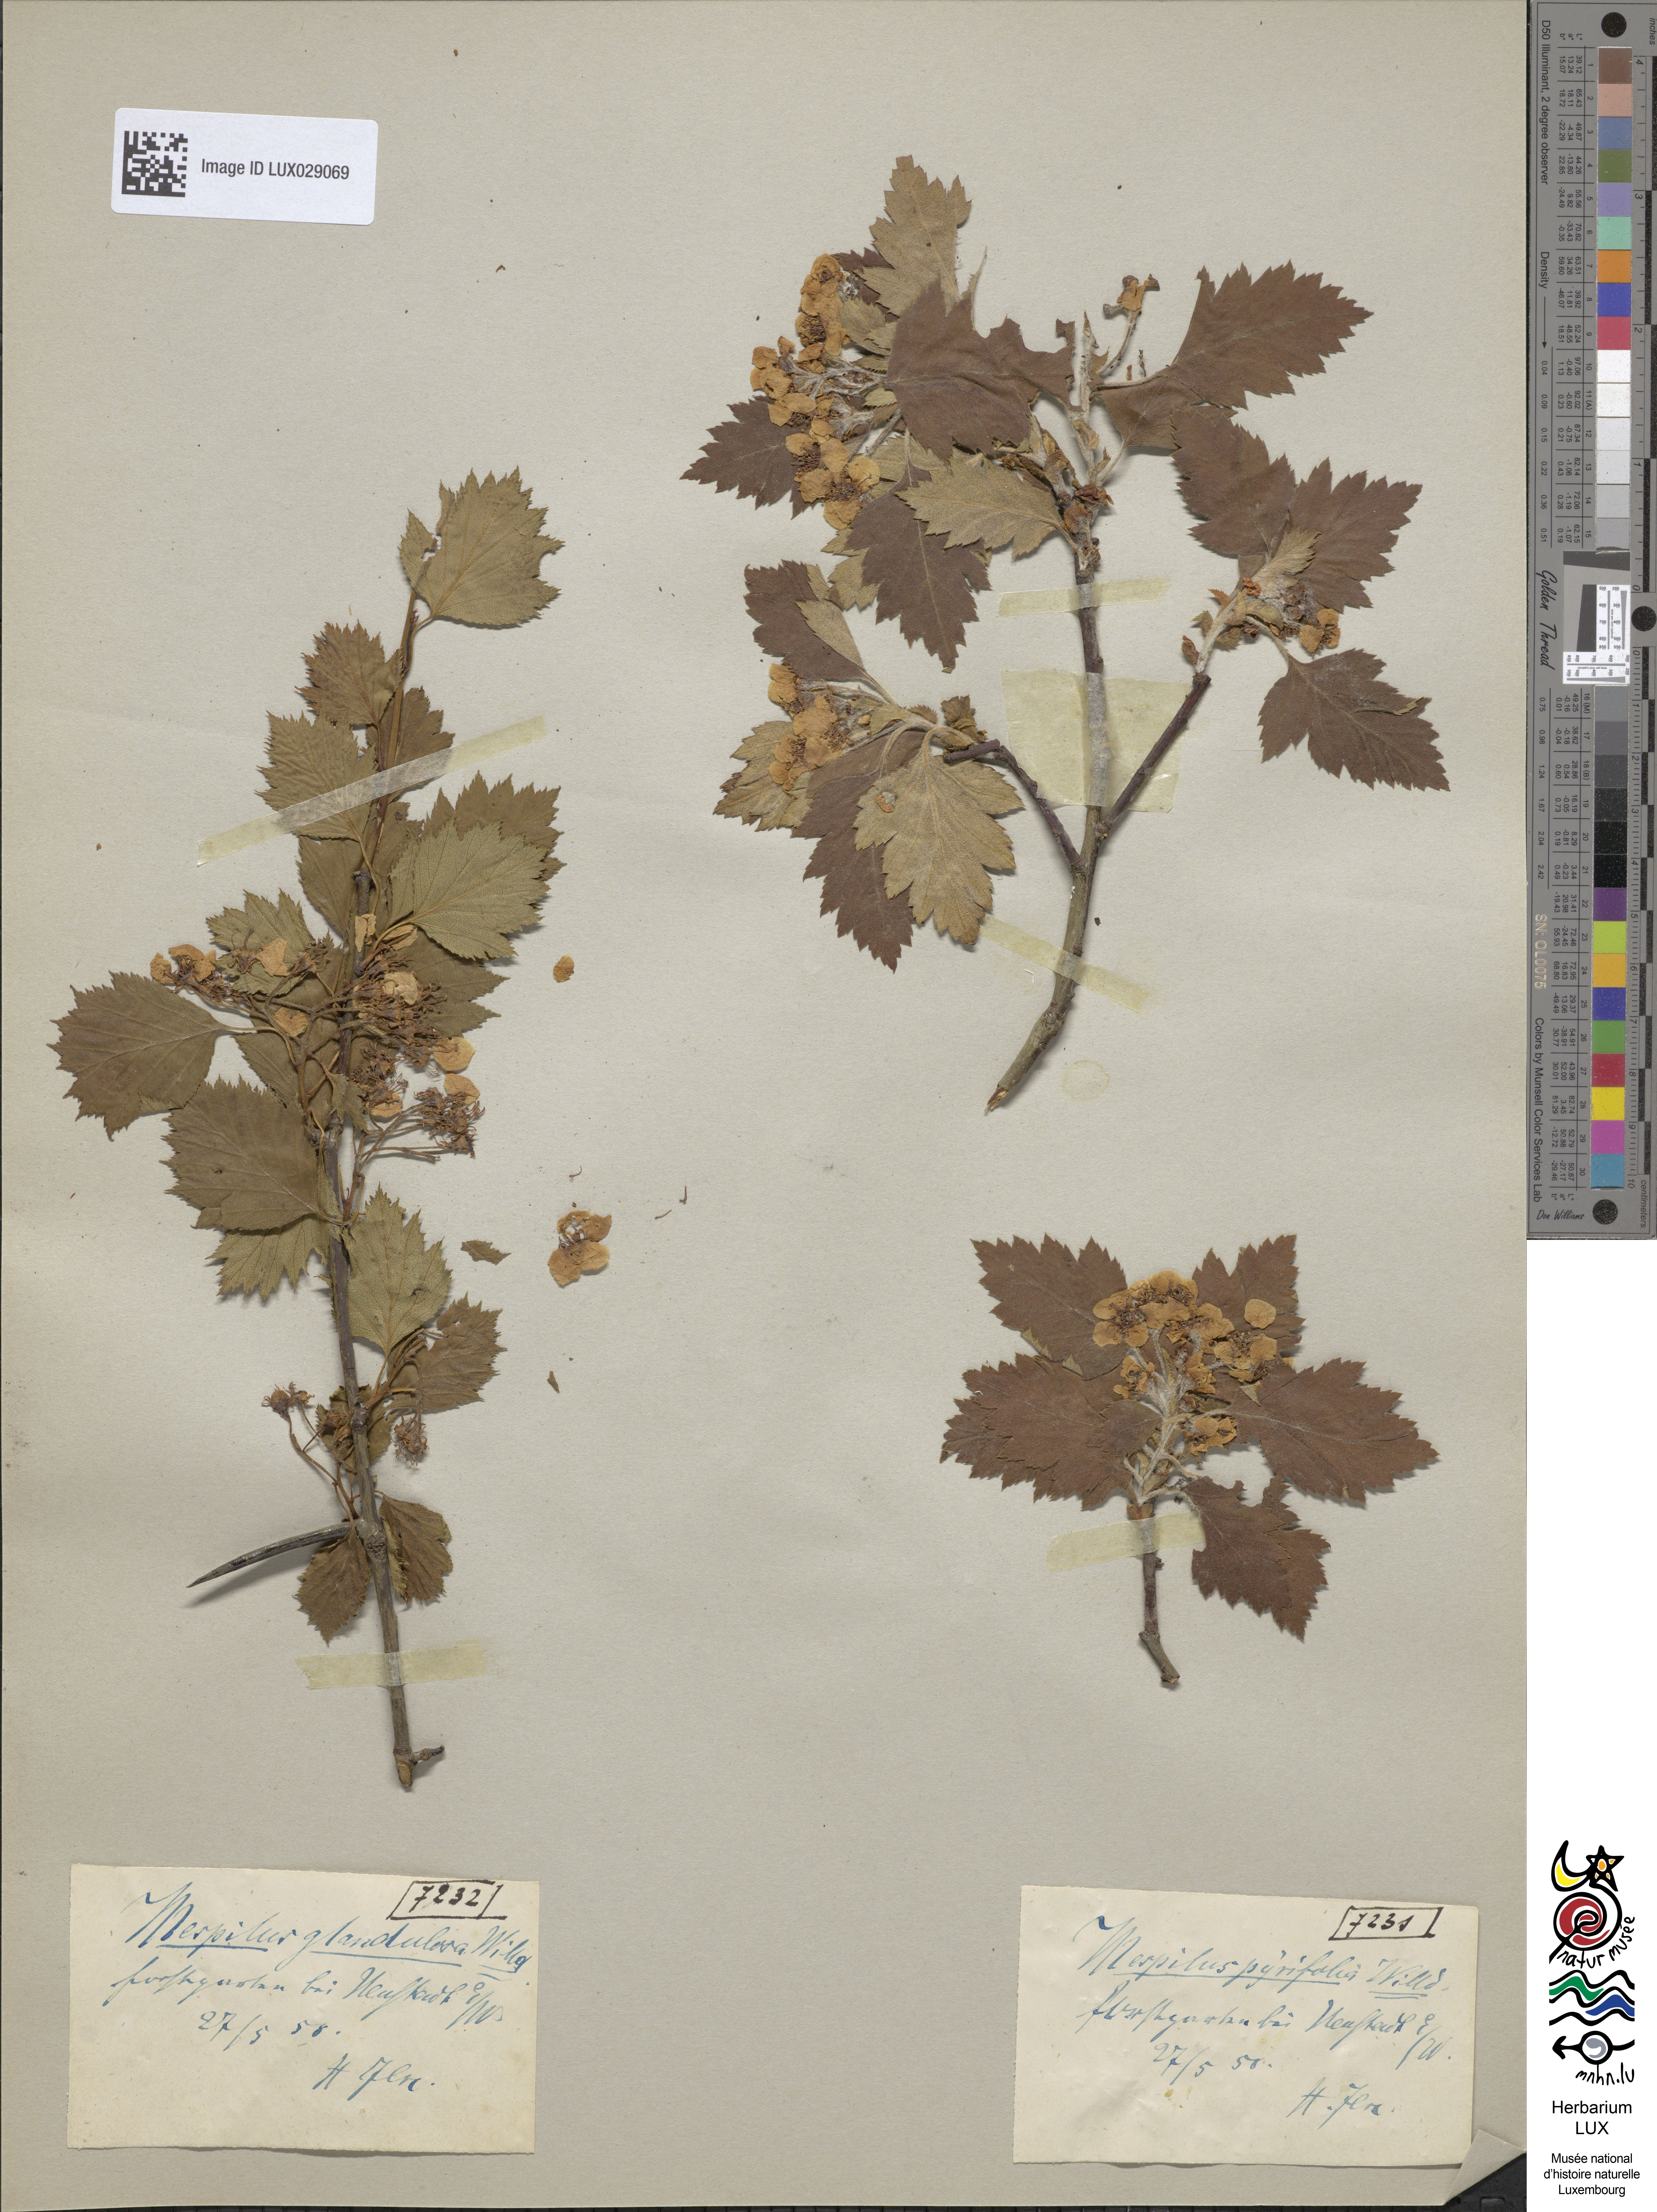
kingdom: Plantae
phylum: Tracheophyta
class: Magnoliopsida
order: Rosales
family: Rosaceae
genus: Crataegus
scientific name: Crataegus chrysocarpa
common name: Fire-berry hawthorn
